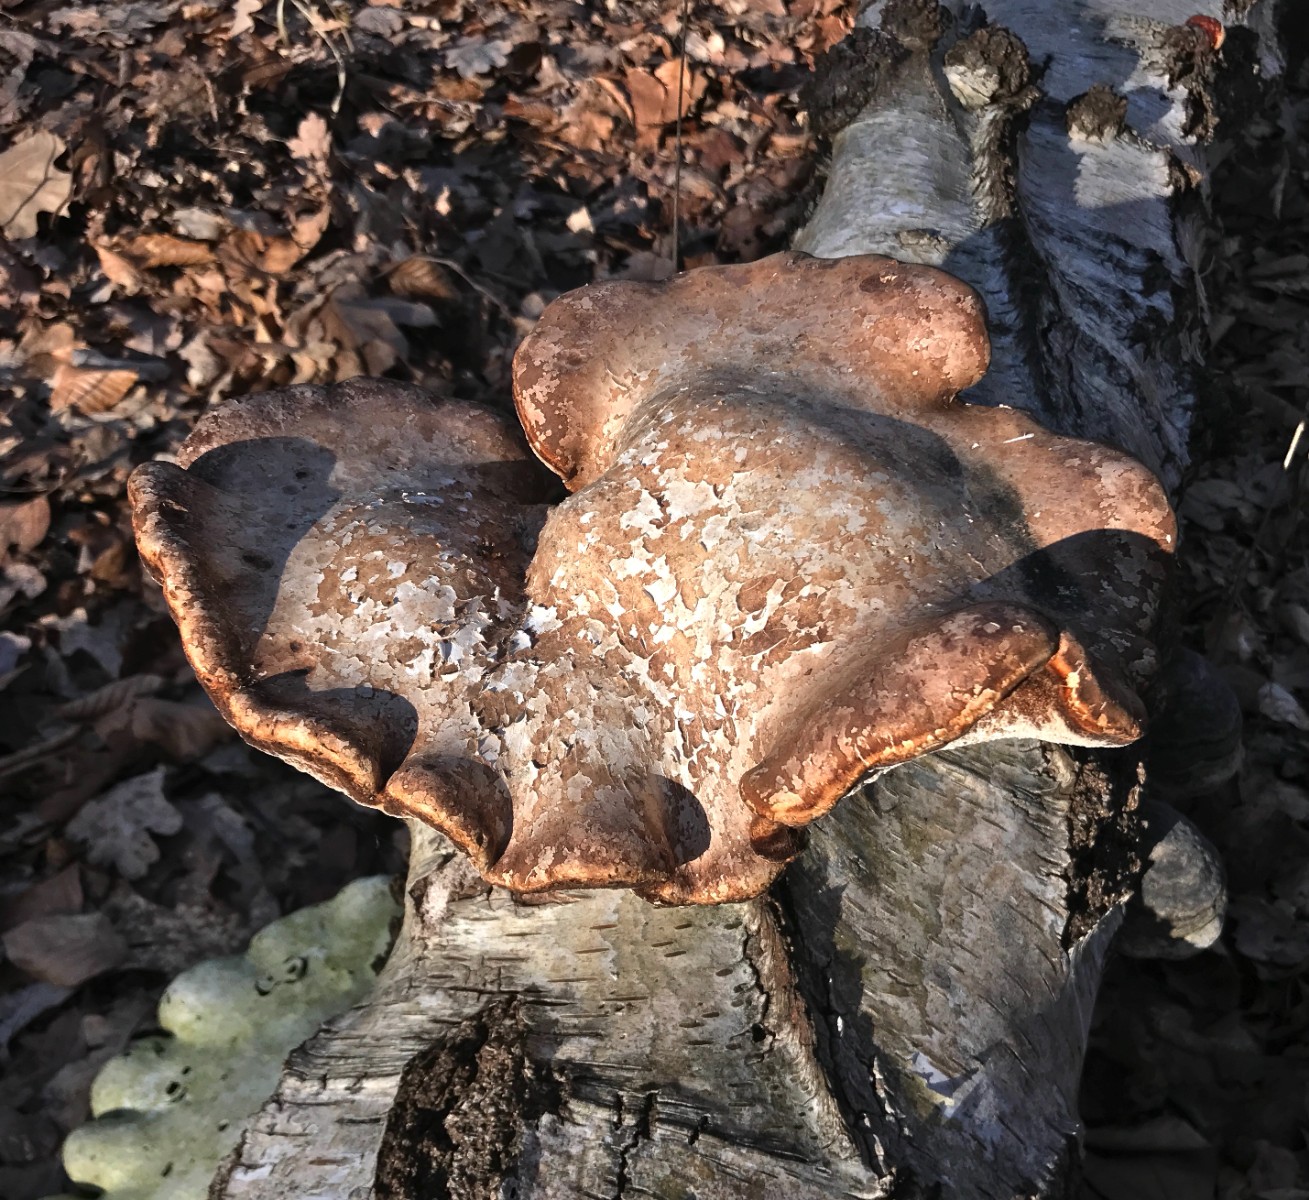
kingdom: Fungi
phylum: Basidiomycota
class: Agaricomycetes
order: Polyporales
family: Fomitopsidaceae
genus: Fomitopsis
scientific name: Fomitopsis betulina
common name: birkeporesvamp
